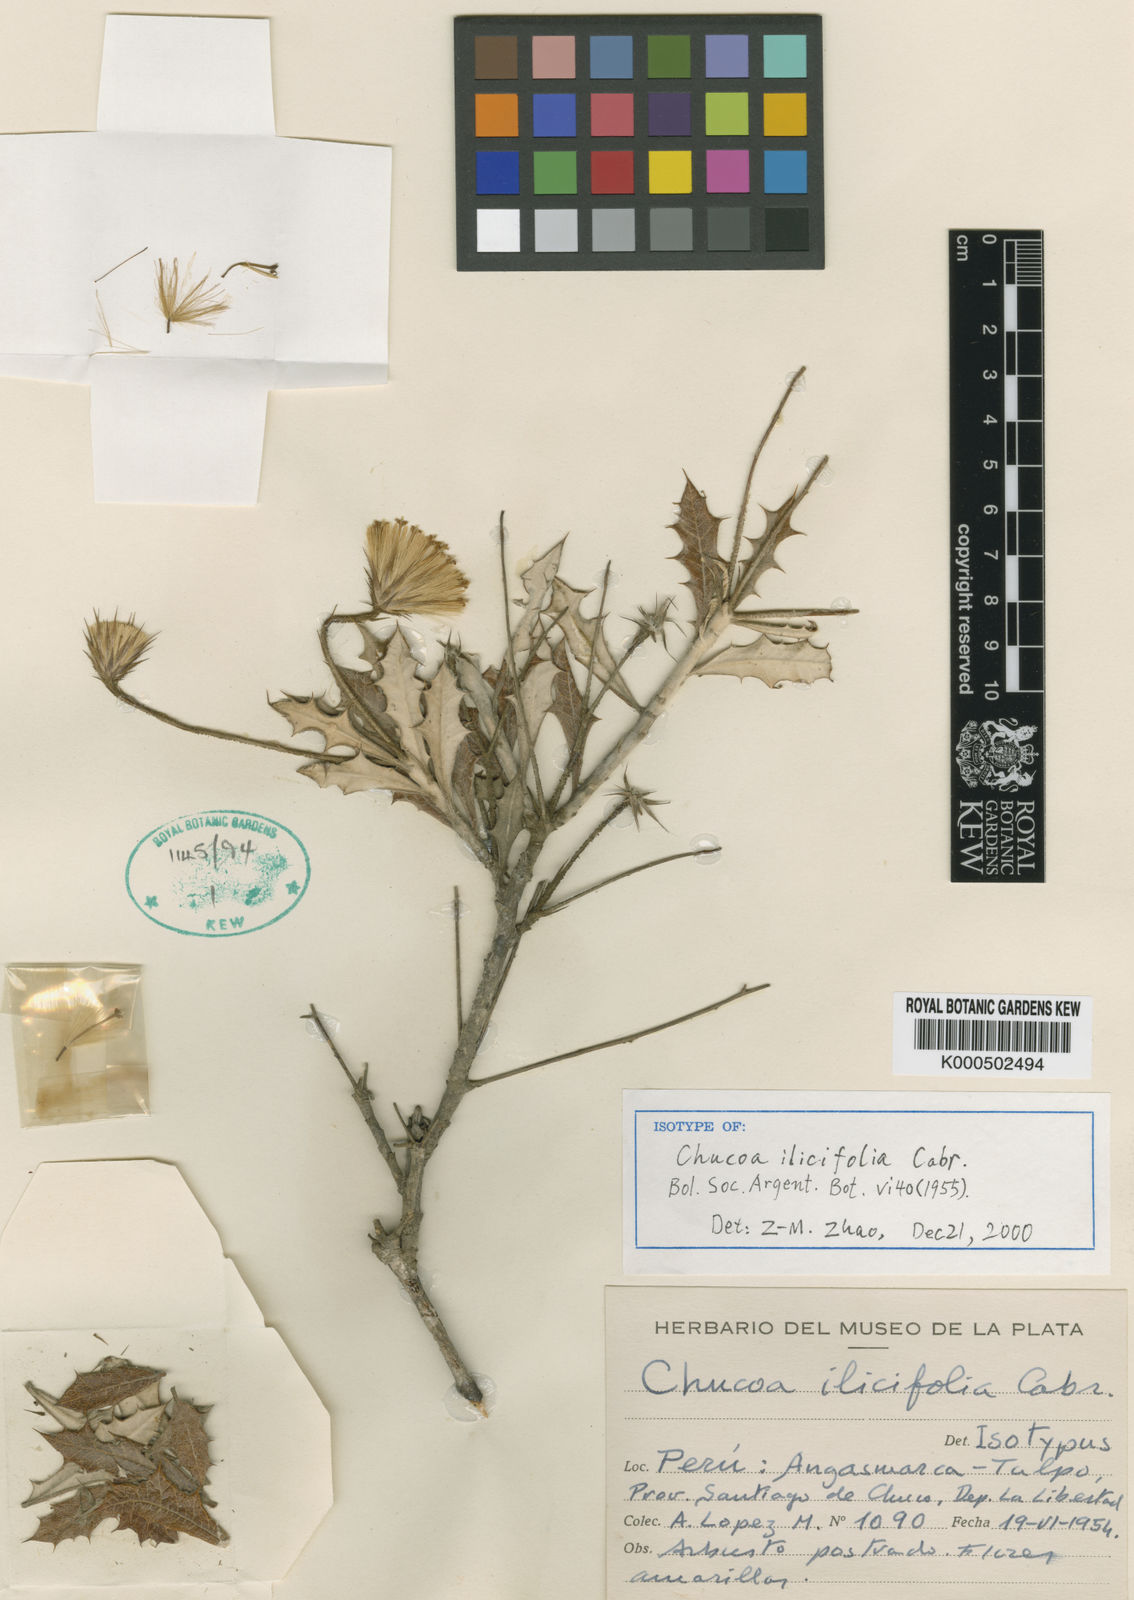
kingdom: Plantae
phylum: Tracheophyta
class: Magnoliopsida
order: Asterales
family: Asteraceae
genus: Chucoa
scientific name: Chucoa ilicifolia
